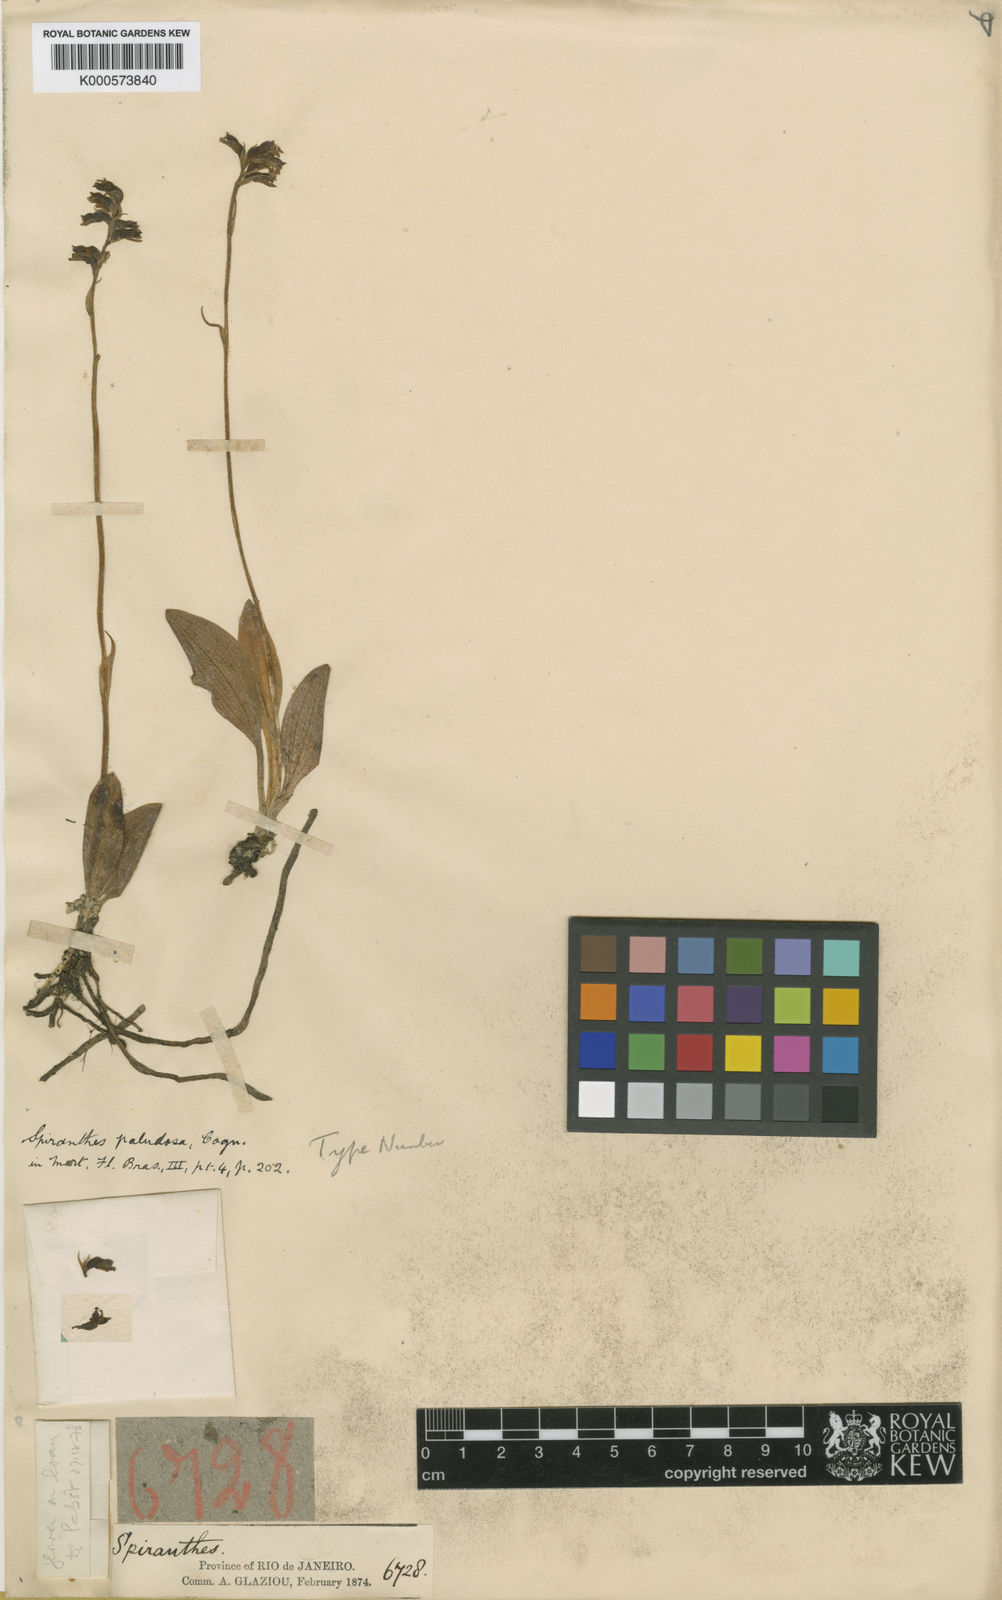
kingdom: Plantae
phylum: Tracheophyta
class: Liliopsida
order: Asparagales
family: Orchidaceae
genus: Cyclopogon
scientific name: Cyclopogon apricus
